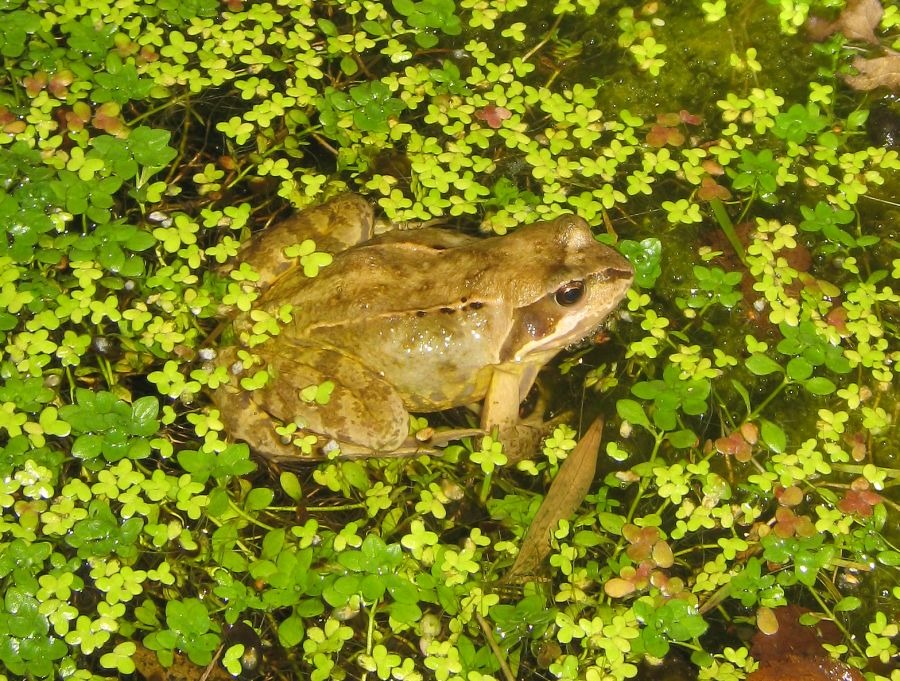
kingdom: Animalia
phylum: Chordata
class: Amphibia
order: Anura
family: Ranidae
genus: Rana
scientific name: Rana temporaria
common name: Butsnudet frø
